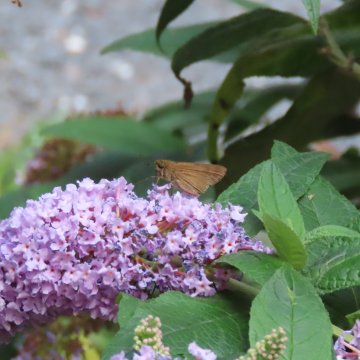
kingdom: Animalia
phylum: Arthropoda
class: Insecta
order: Lepidoptera
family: Hesperiidae
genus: Panoquina
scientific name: Panoquina ocola
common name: Ocola Skipper
